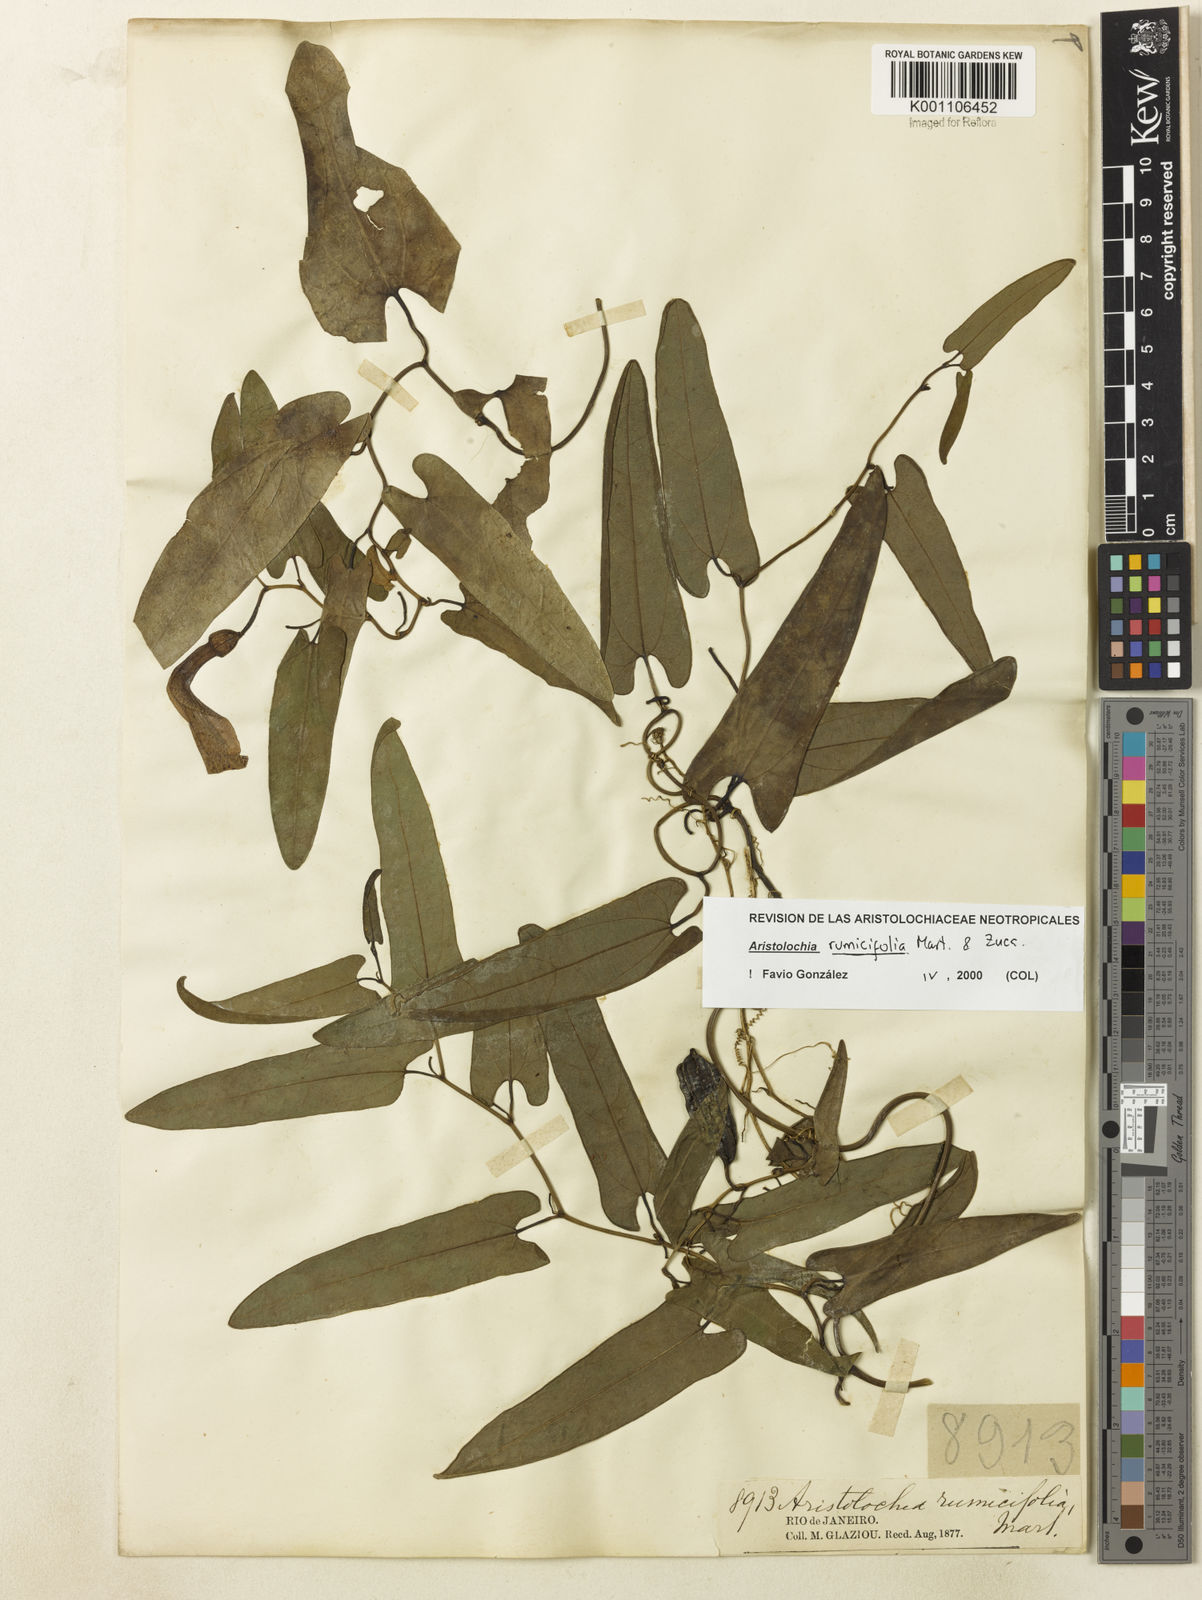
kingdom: Plantae
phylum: Tracheophyta
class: Magnoliopsida
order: Piperales
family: Aristolochiaceae
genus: Aristolochia
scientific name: Aristolochia rumicifolia
